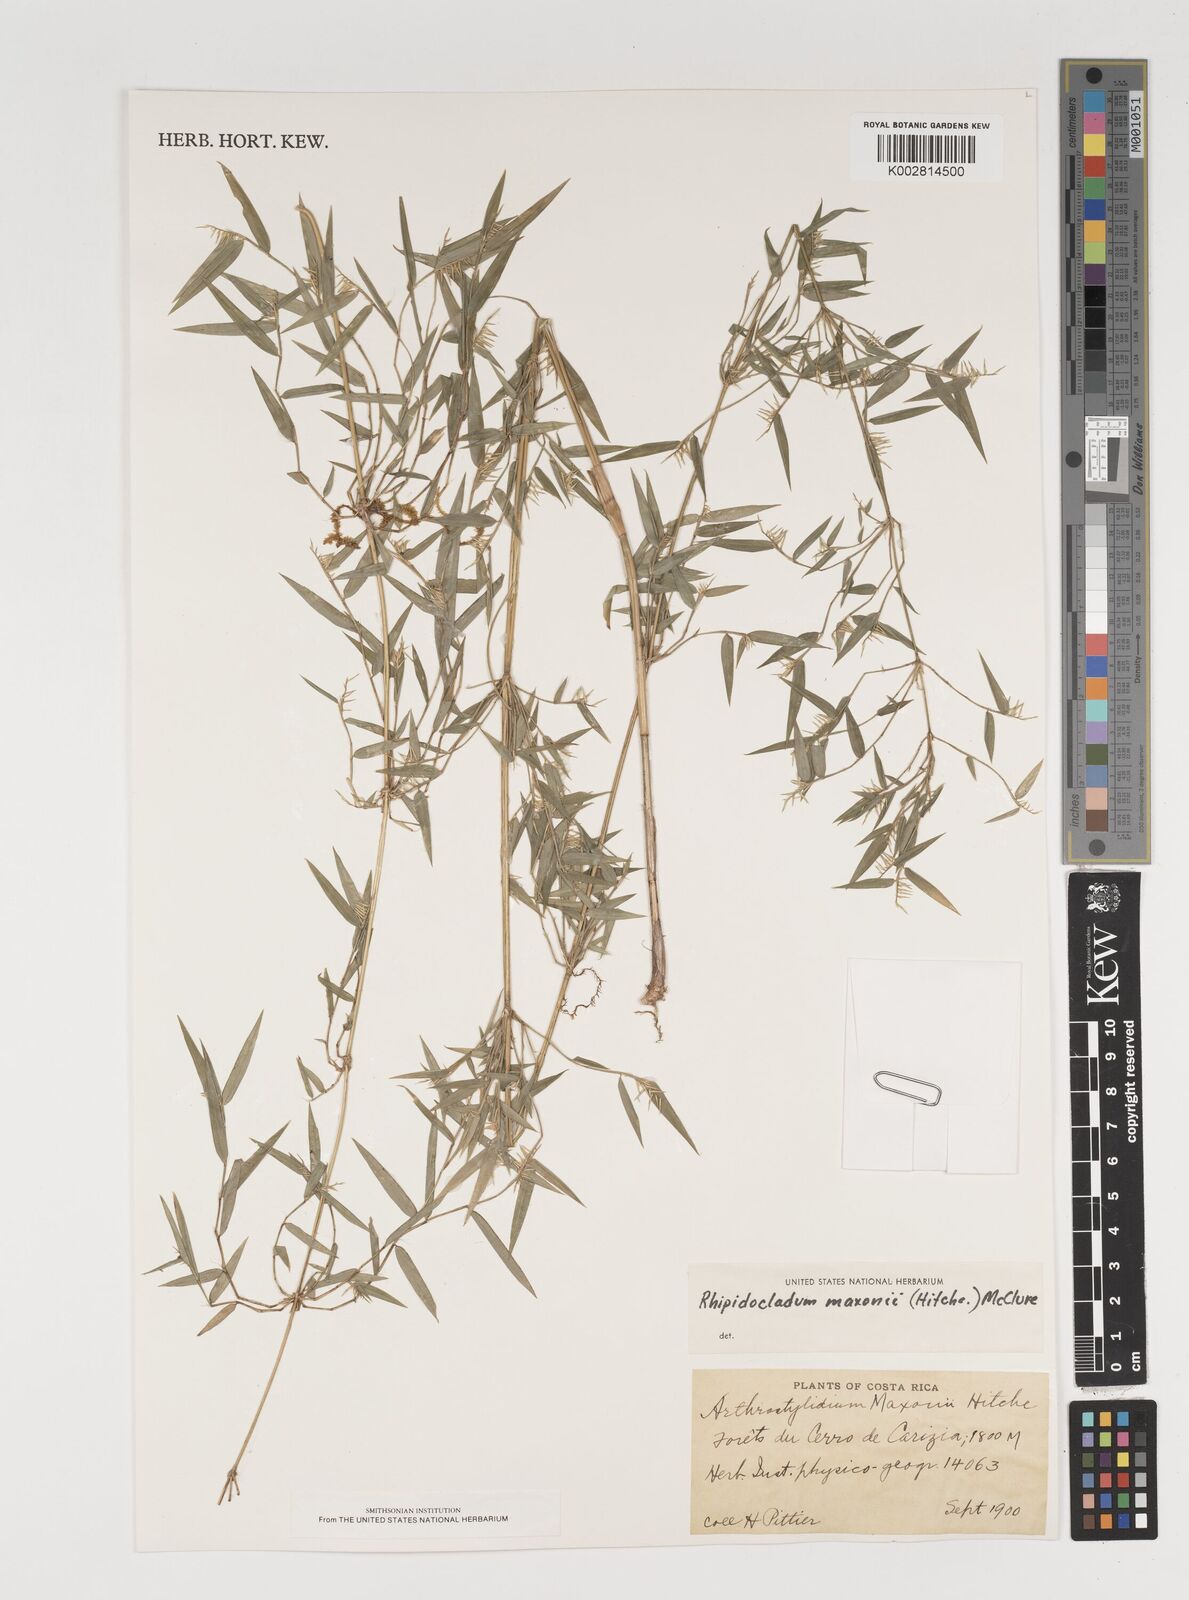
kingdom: Plantae
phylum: Tracheophyta
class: Liliopsida
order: Poales
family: Poaceae
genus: Rhipidocladum
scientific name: Rhipidocladum maxonii
